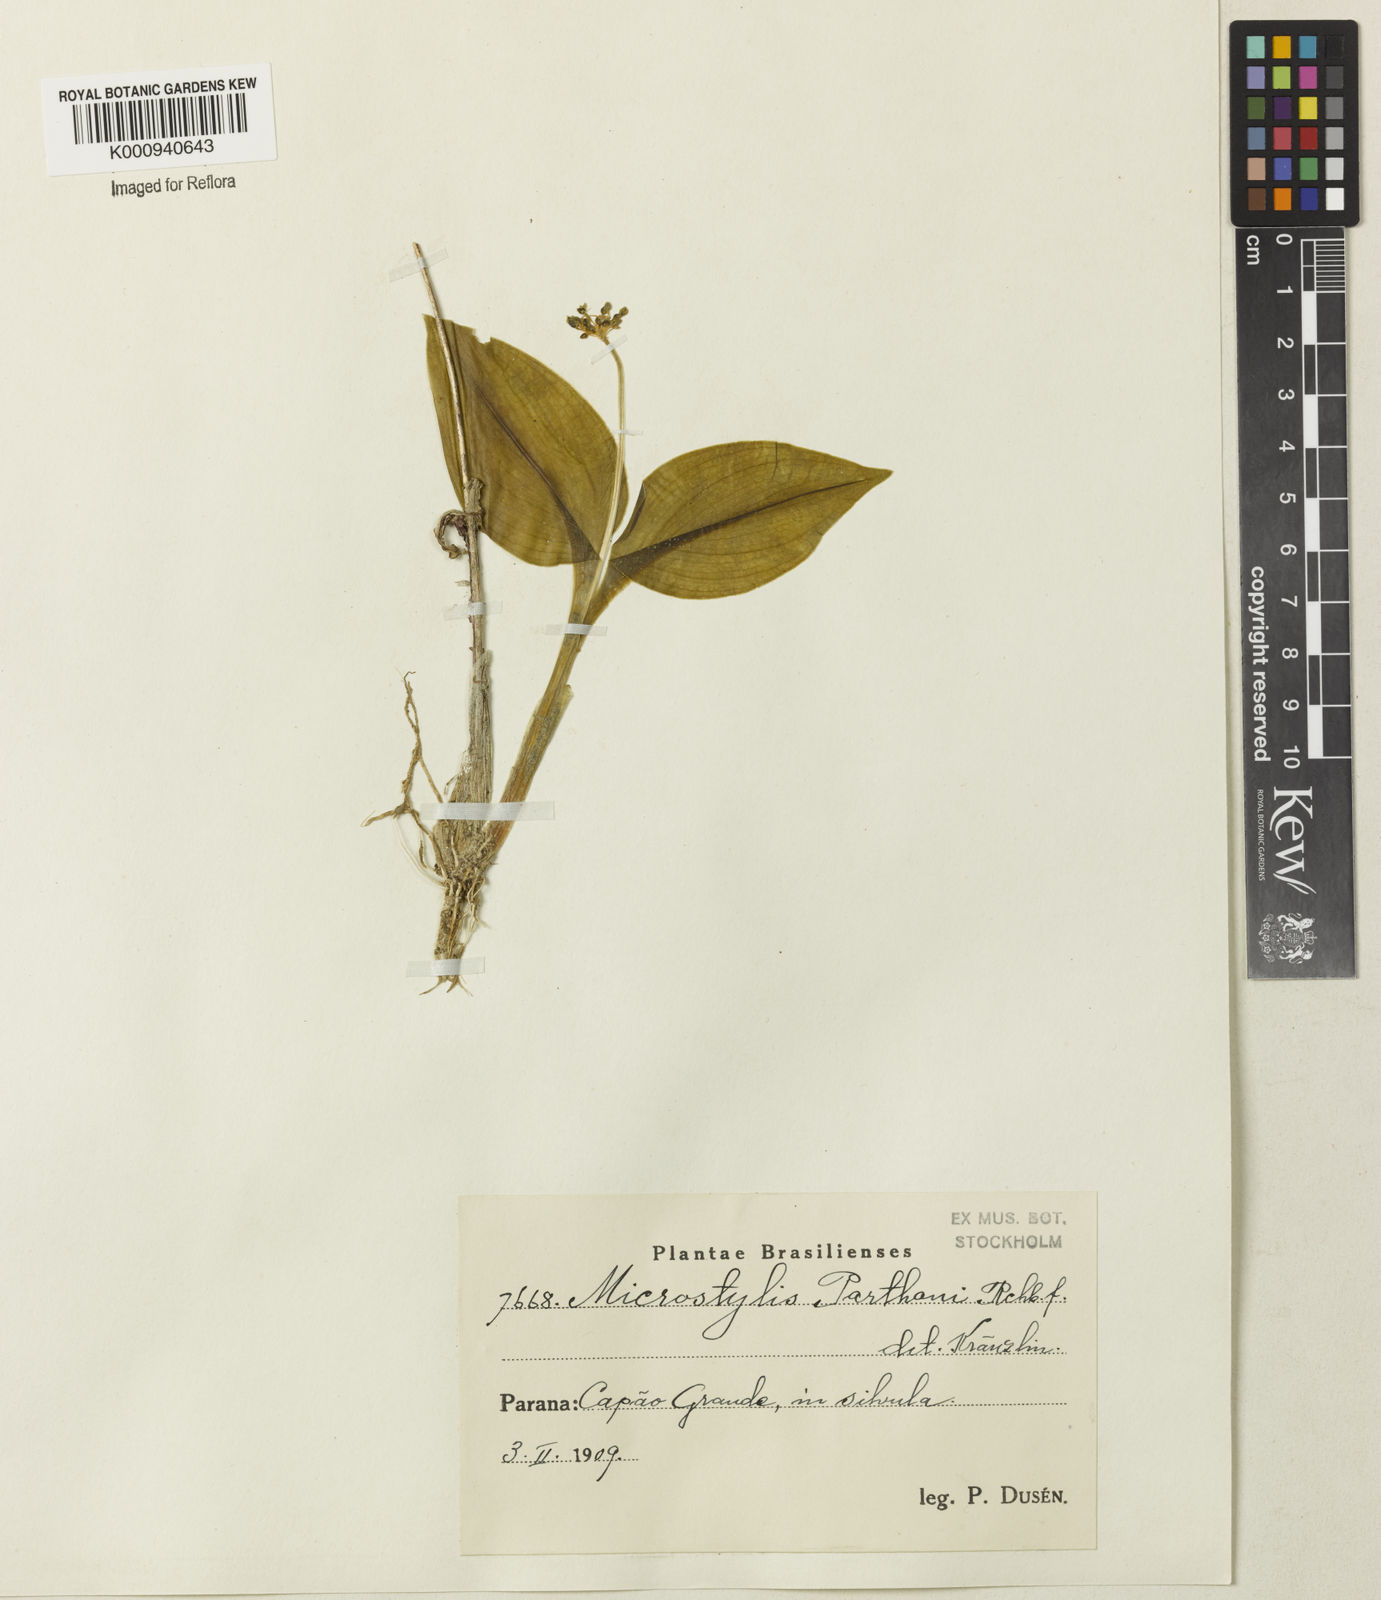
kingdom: Plantae
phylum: Tracheophyta
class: Liliopsida
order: Asparagales
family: Orchidaceae
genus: Malaxis
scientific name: Malaxis parthoni
